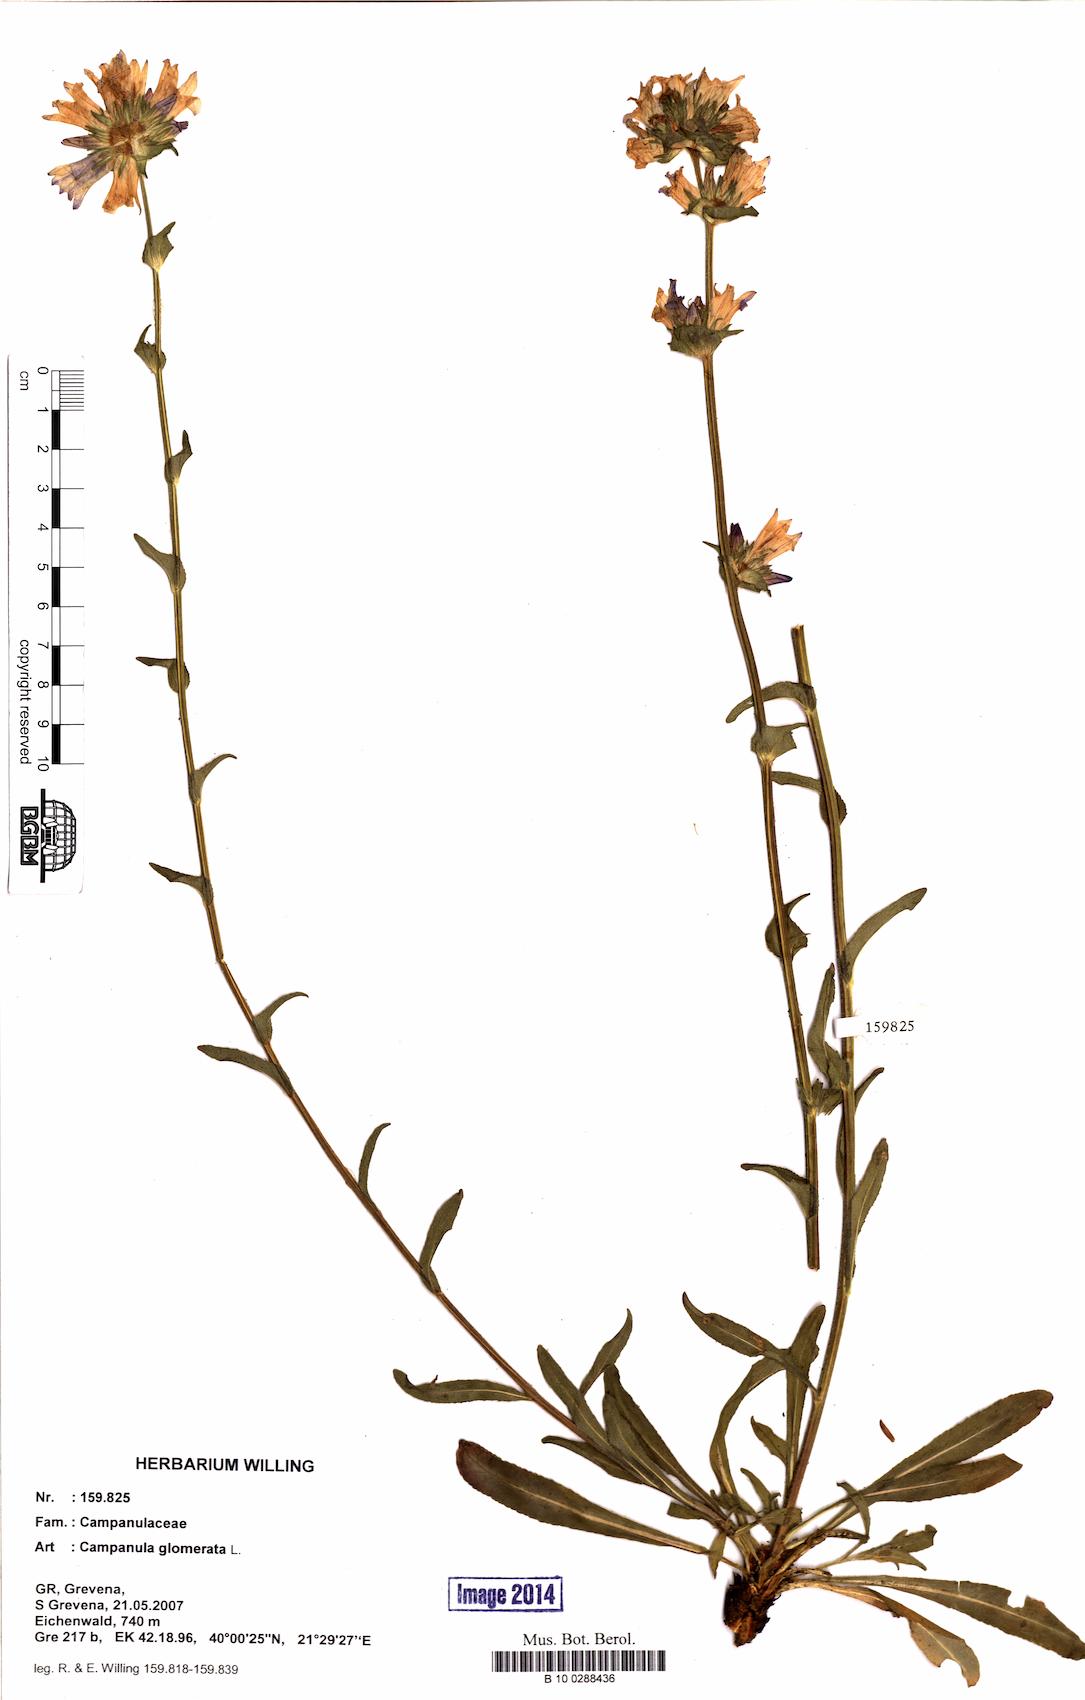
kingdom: Plantae
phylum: Tracheophyta
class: Magnoliopsida
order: Asterales
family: Campanulaceae
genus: Campanula
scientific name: Campanula glomerata
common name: Clustered bellflower
